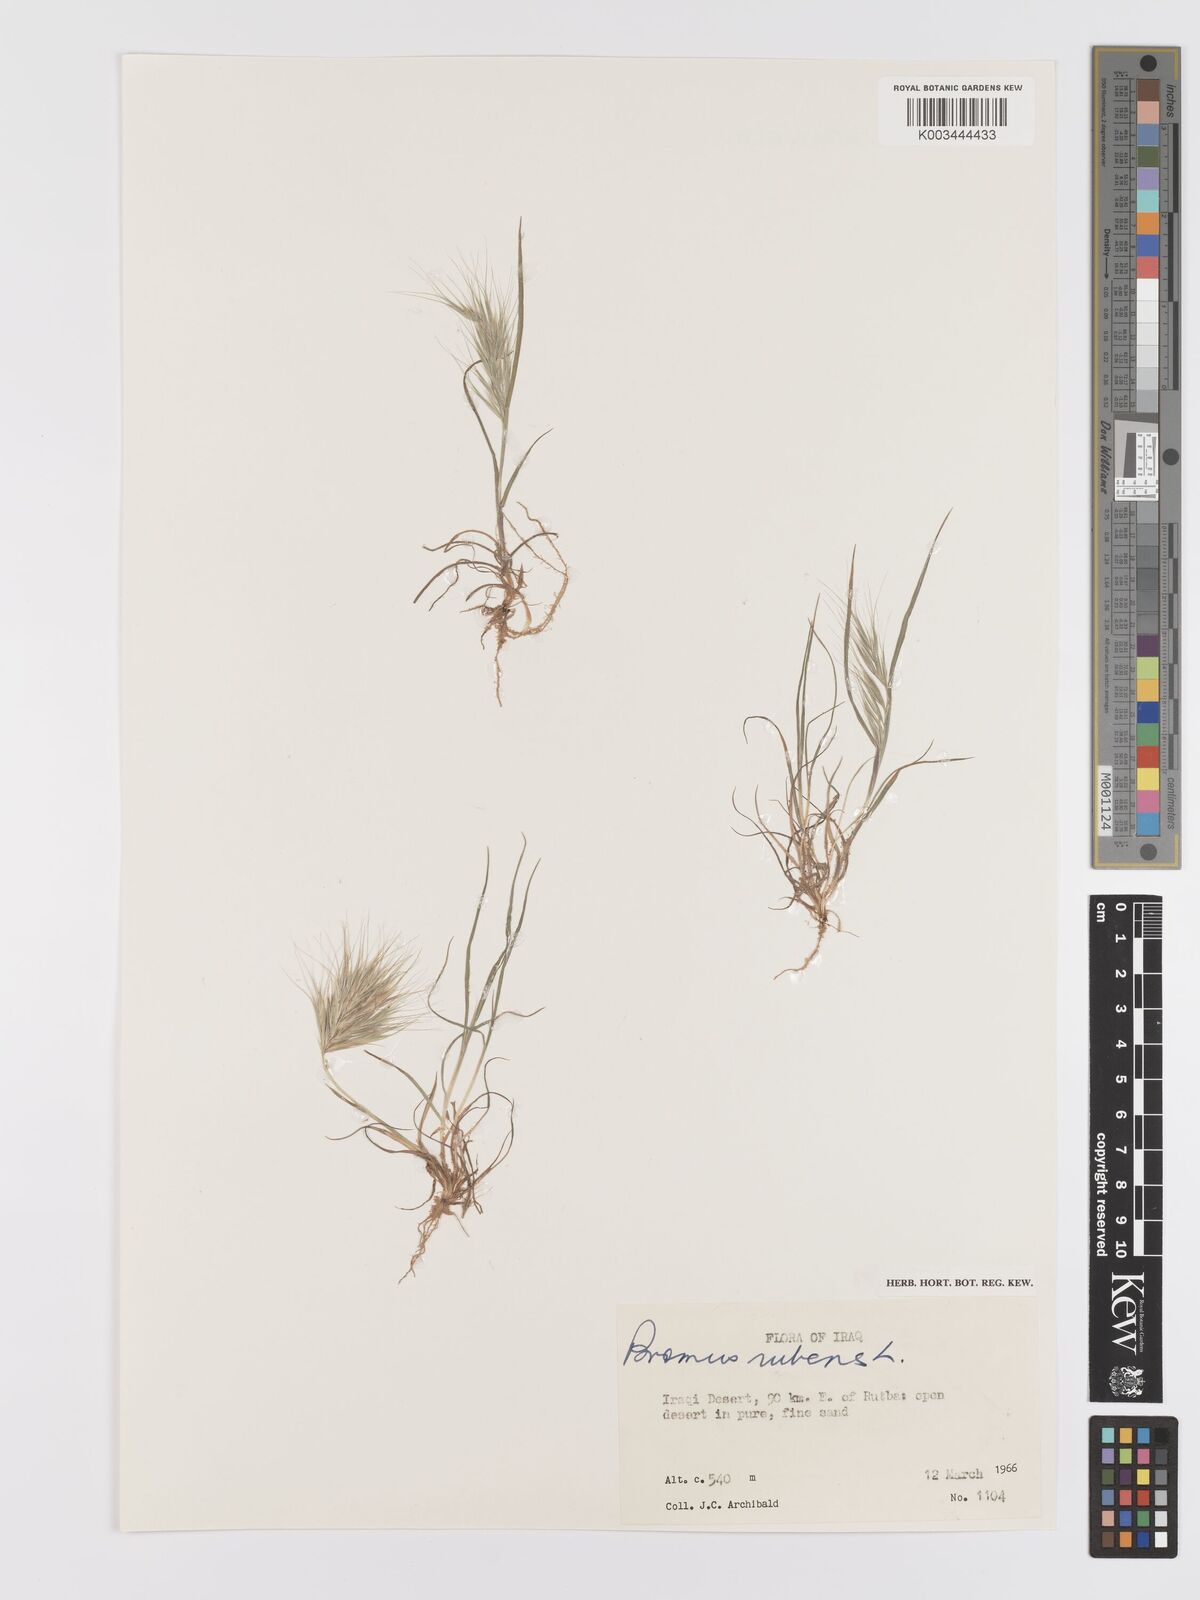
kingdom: Plantae
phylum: Tracheophyta
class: Liliopsida
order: Poales
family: Poaceae
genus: Bromus
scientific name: Bromus rubens
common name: Red brome
